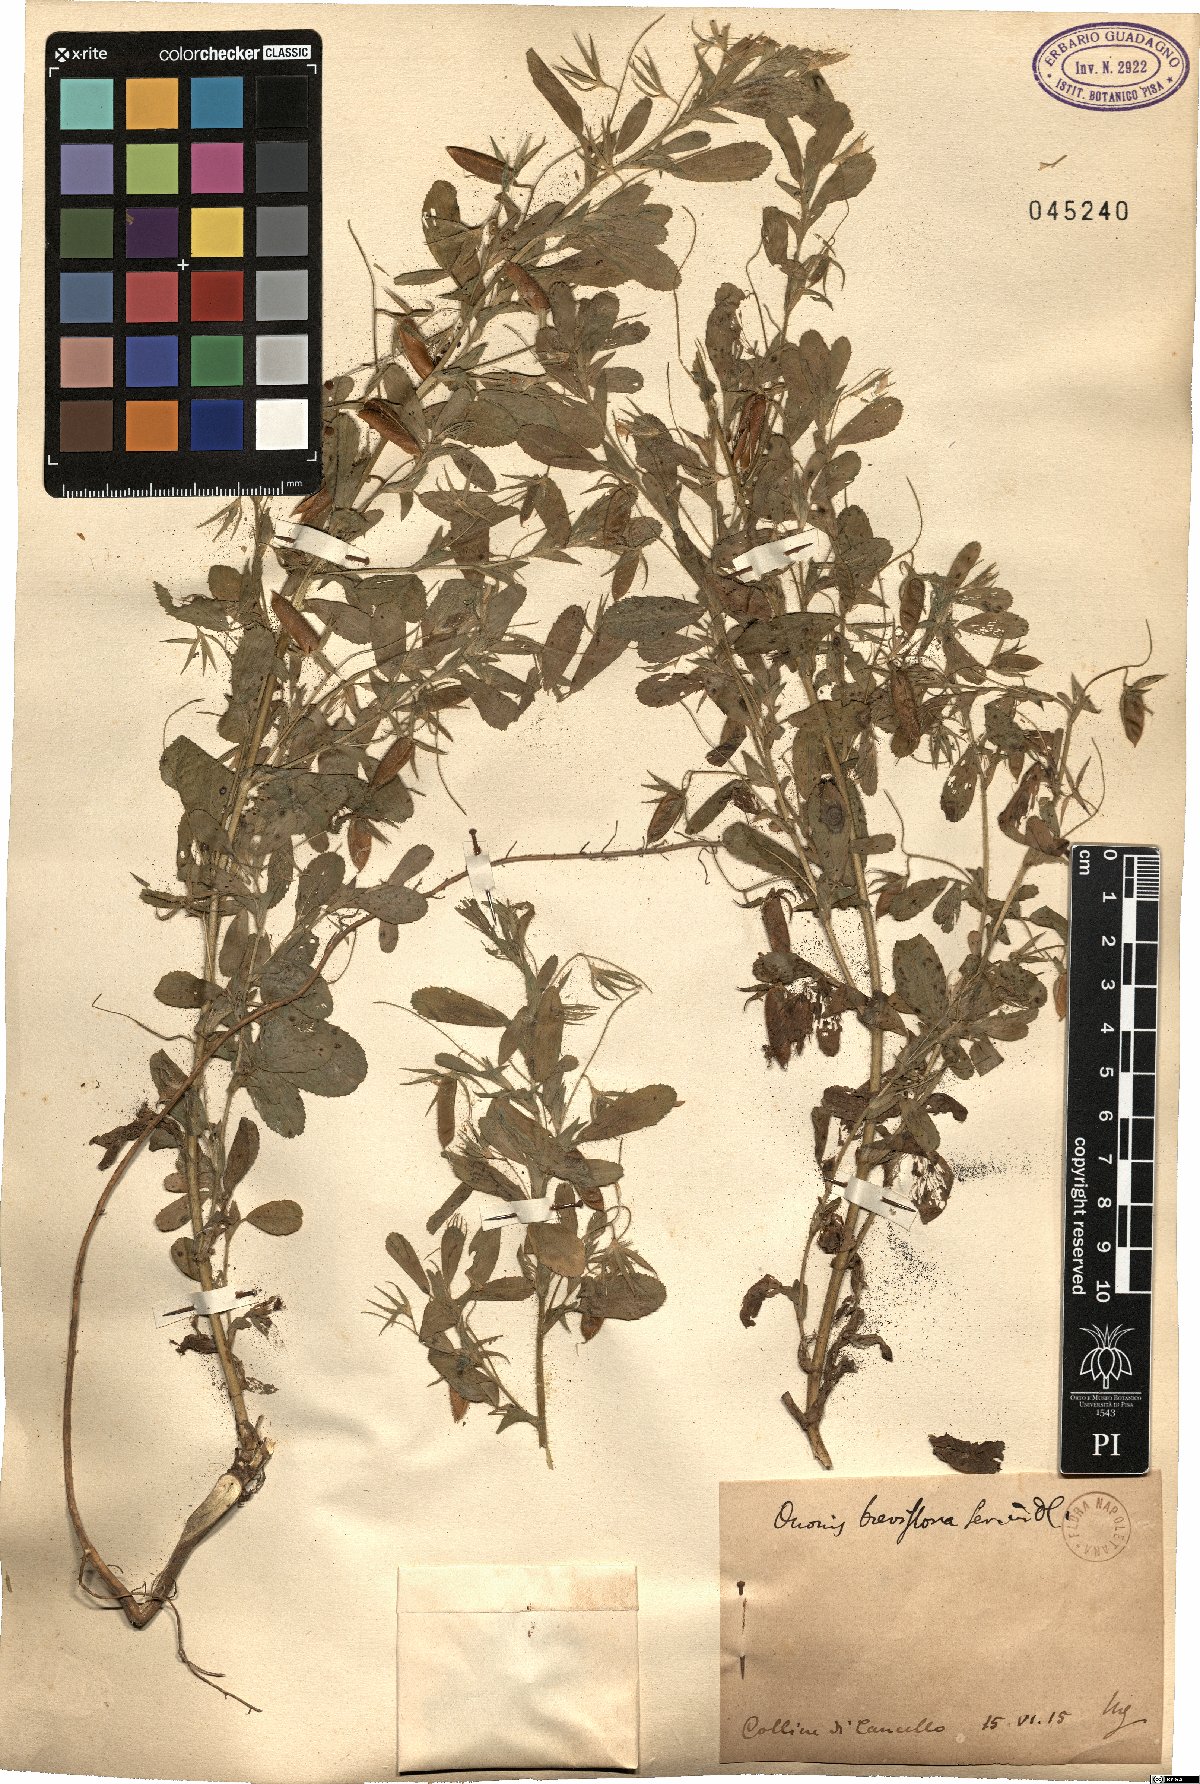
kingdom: Plantae
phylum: Tracheophyta
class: Magnoliopsida
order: Fabales
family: Fabaceae
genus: Ononis
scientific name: Ononis viscosa
